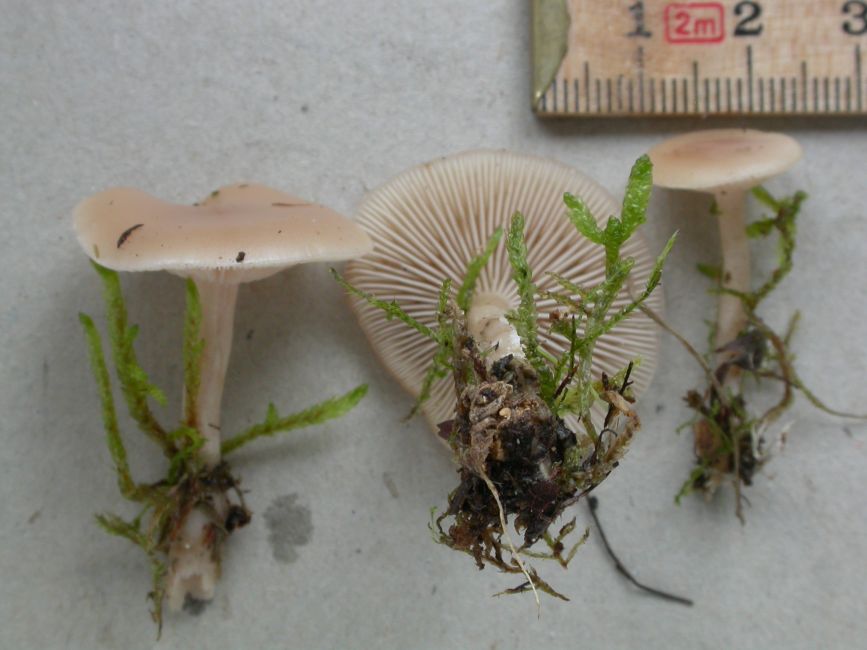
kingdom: Fungi
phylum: Basidiomycota
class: Agaricomycetes
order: Agaricales
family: Tricholomataceae
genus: Clitocybe
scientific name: Clitocybe agrestis
